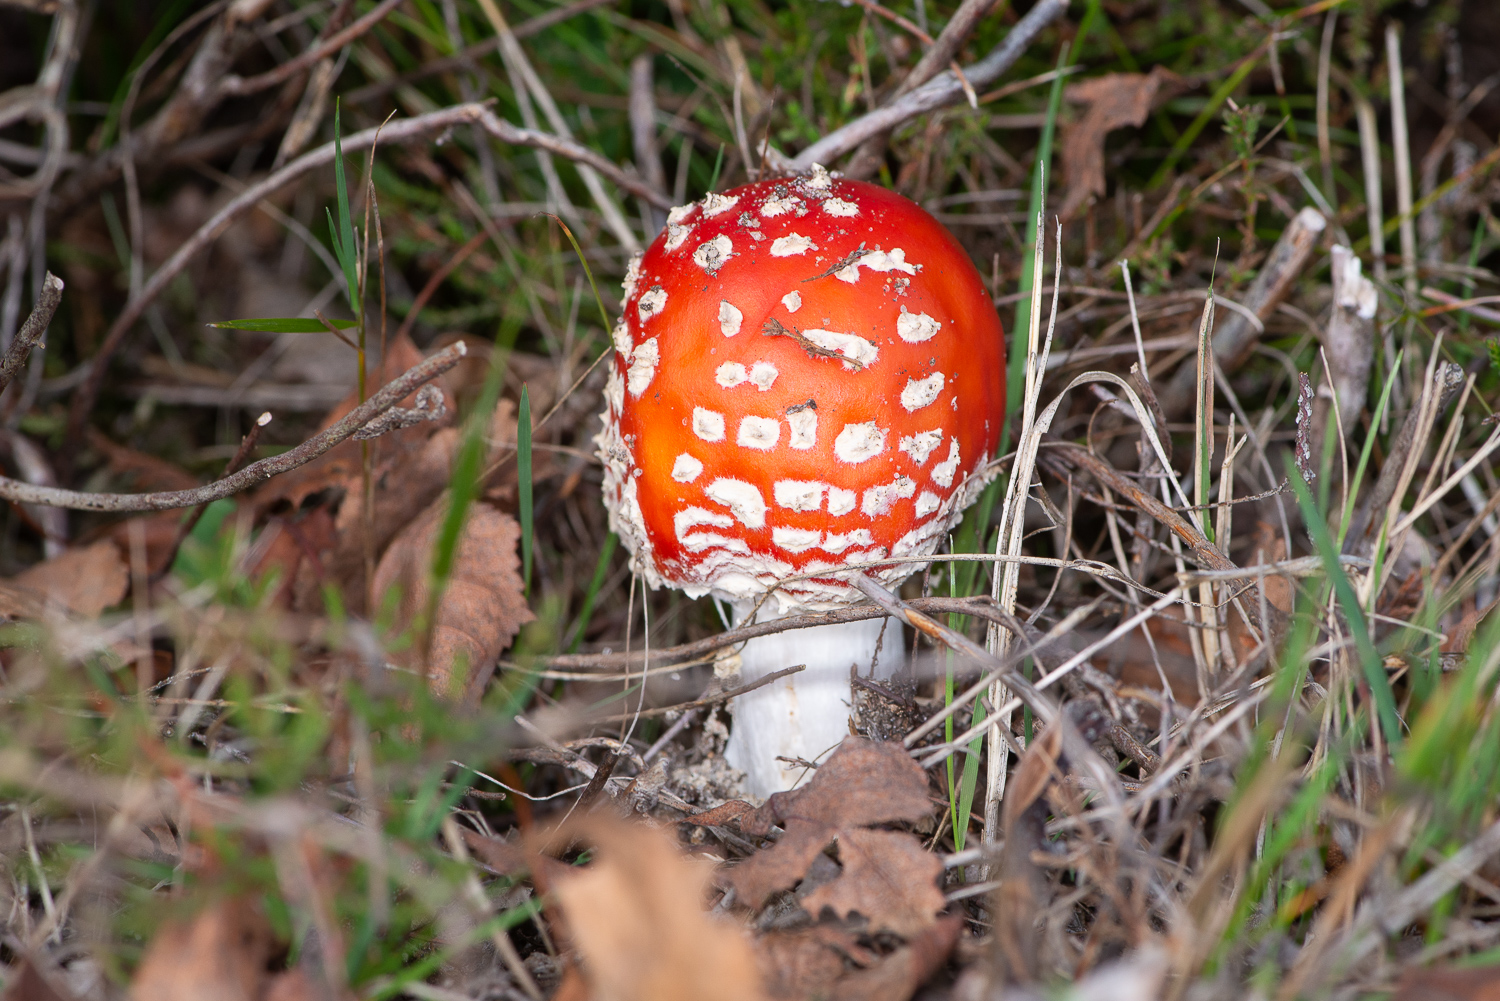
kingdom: Fungi
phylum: Basidiomycota
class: Agaricomycetes
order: Agaricales
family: Amanitaceae
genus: Amanita
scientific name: Amanita muscaria
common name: rød fluesvamp
